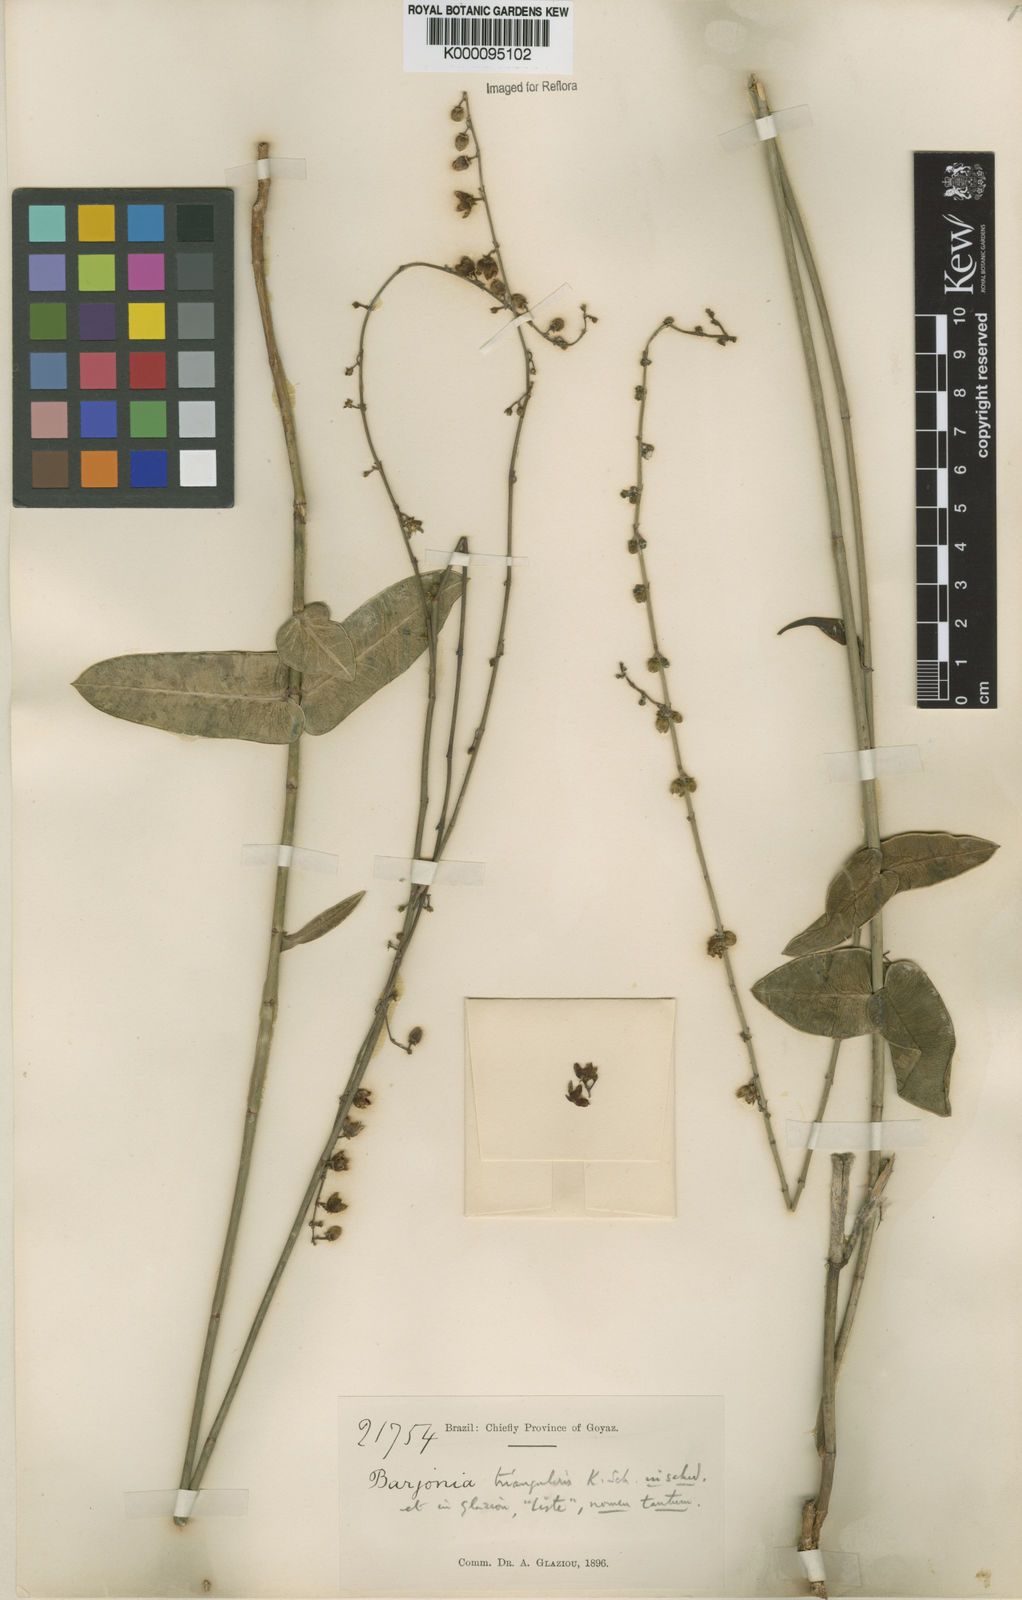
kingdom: Plantae
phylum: Tracheophyta
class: Magnoliopsida
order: Gentianales
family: Apocynaceae
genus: Barjonia
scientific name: Barjonia erecta
